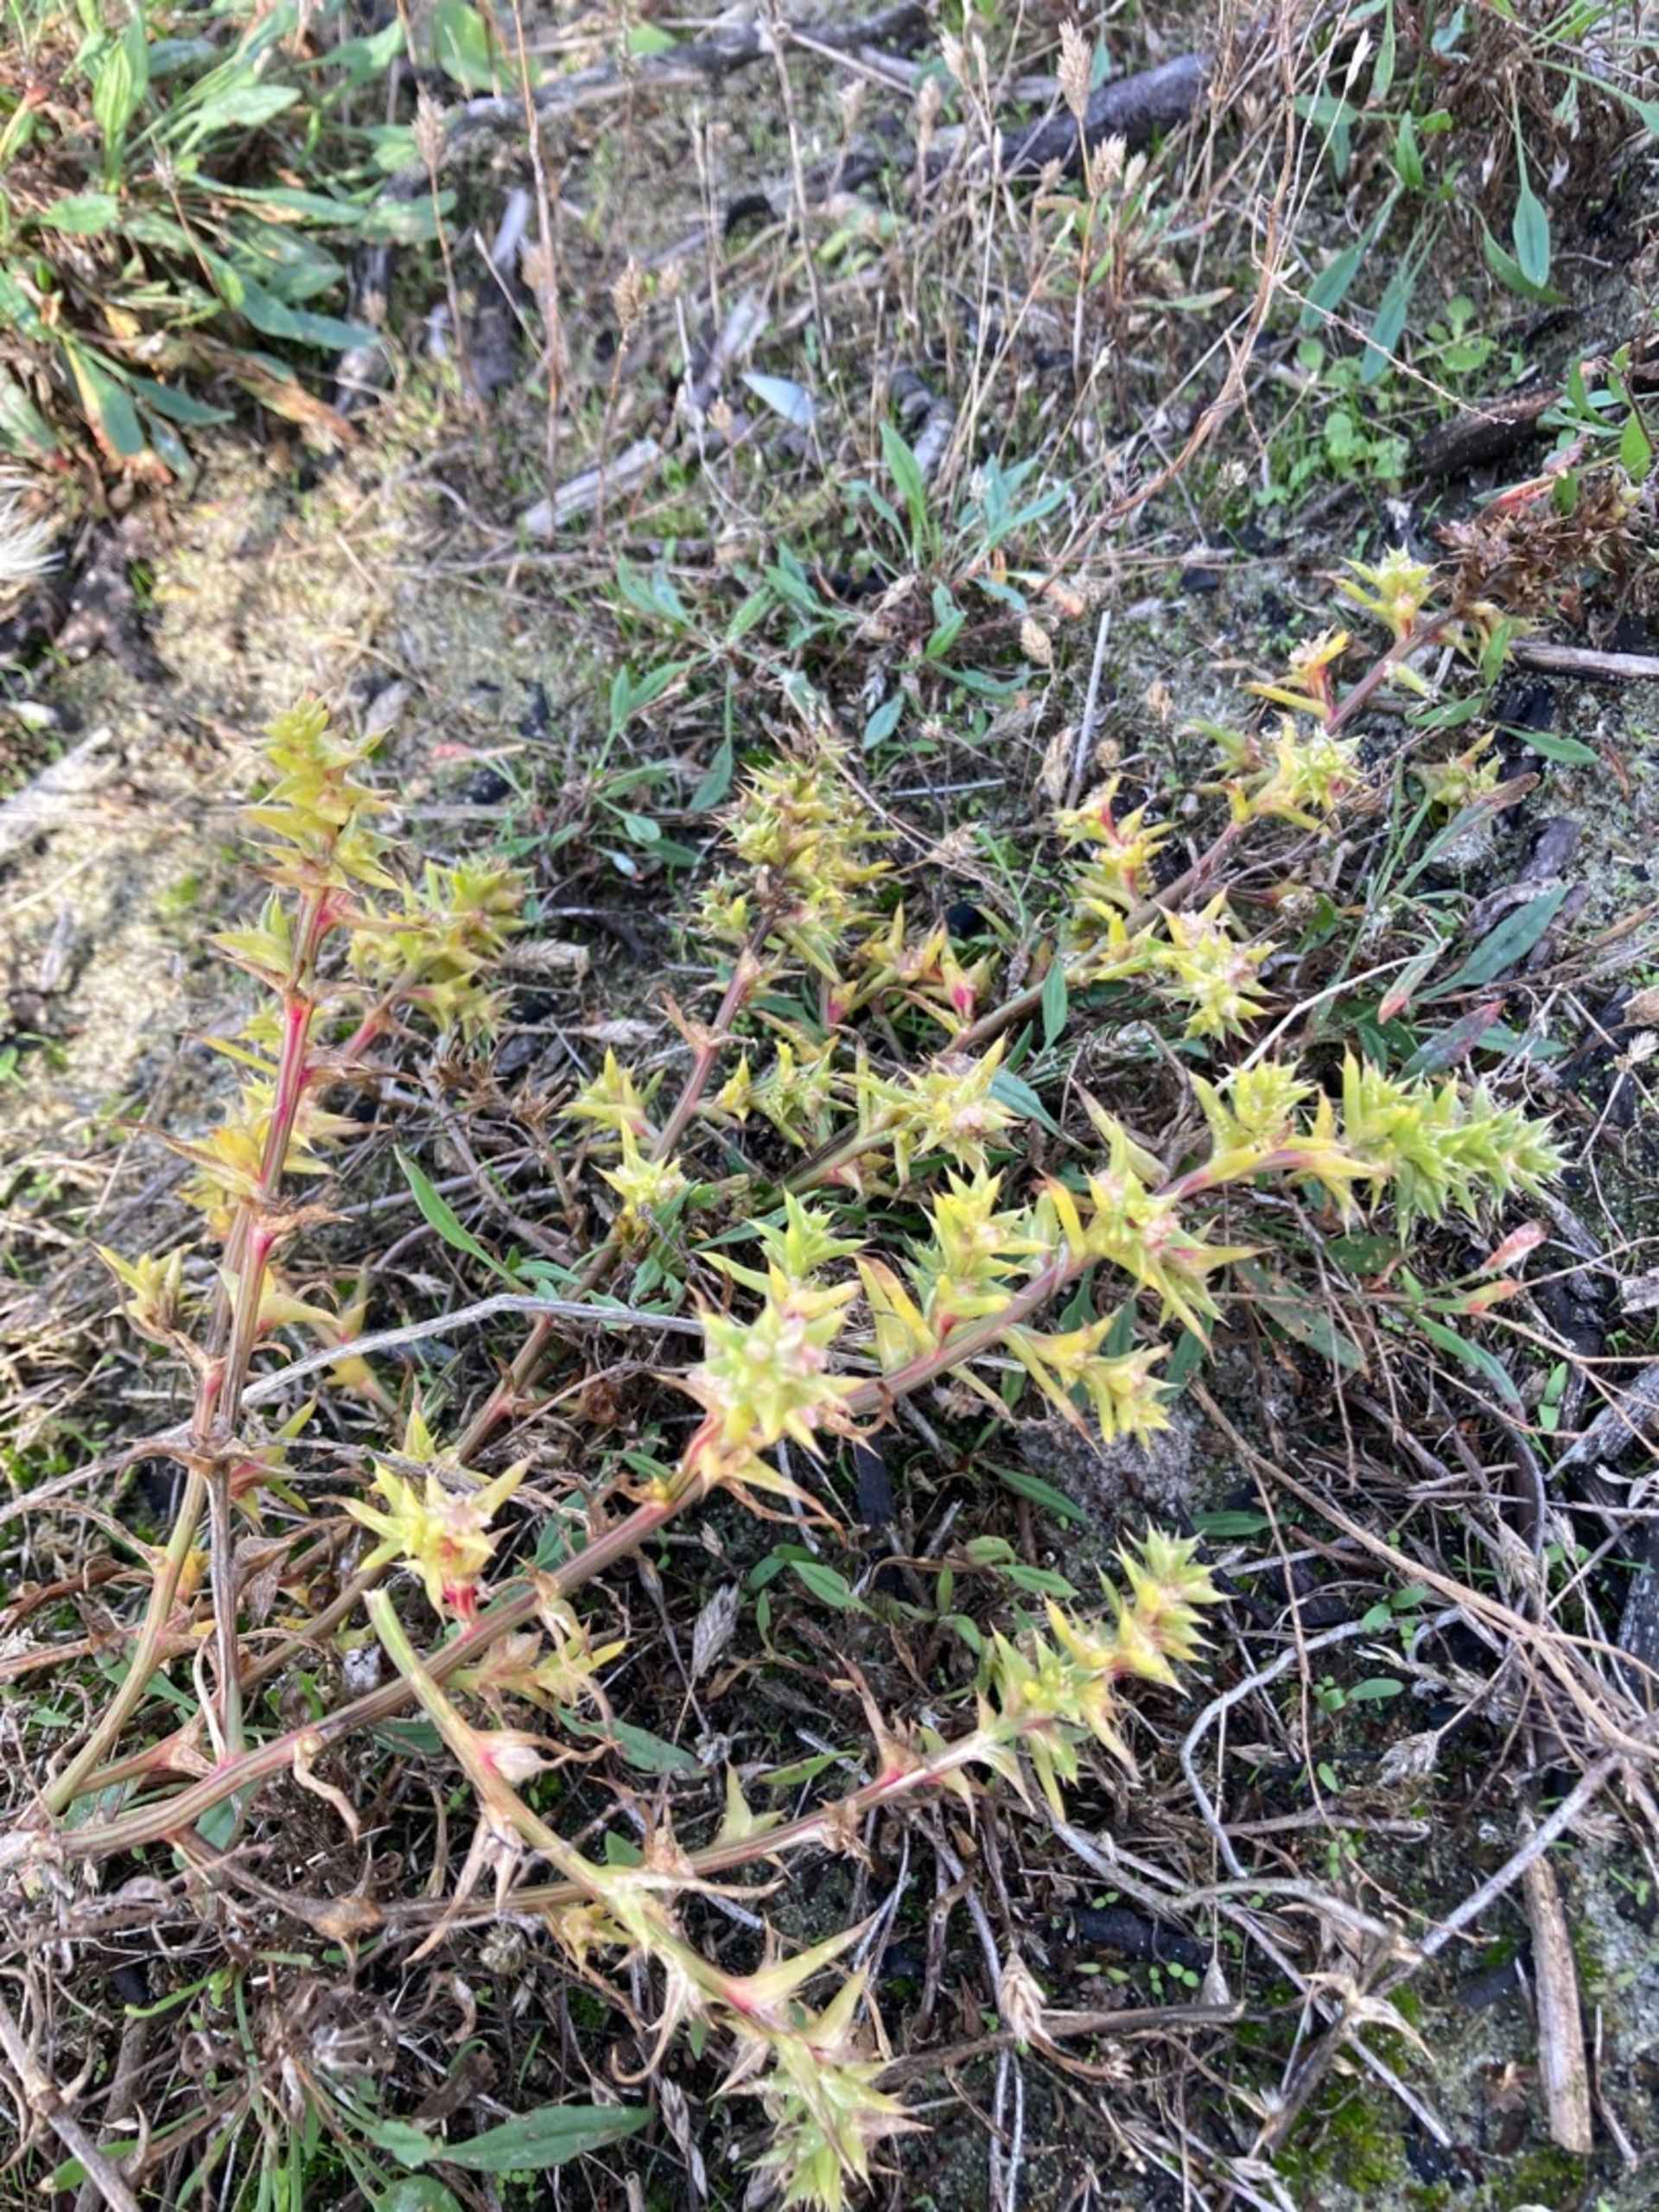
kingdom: Plantae
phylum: Tracheophyta
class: Magnoliopsida
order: Caryophyllales
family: Amaranthaceae
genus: Salsola
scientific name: Salsola kali
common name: Sodaurt
